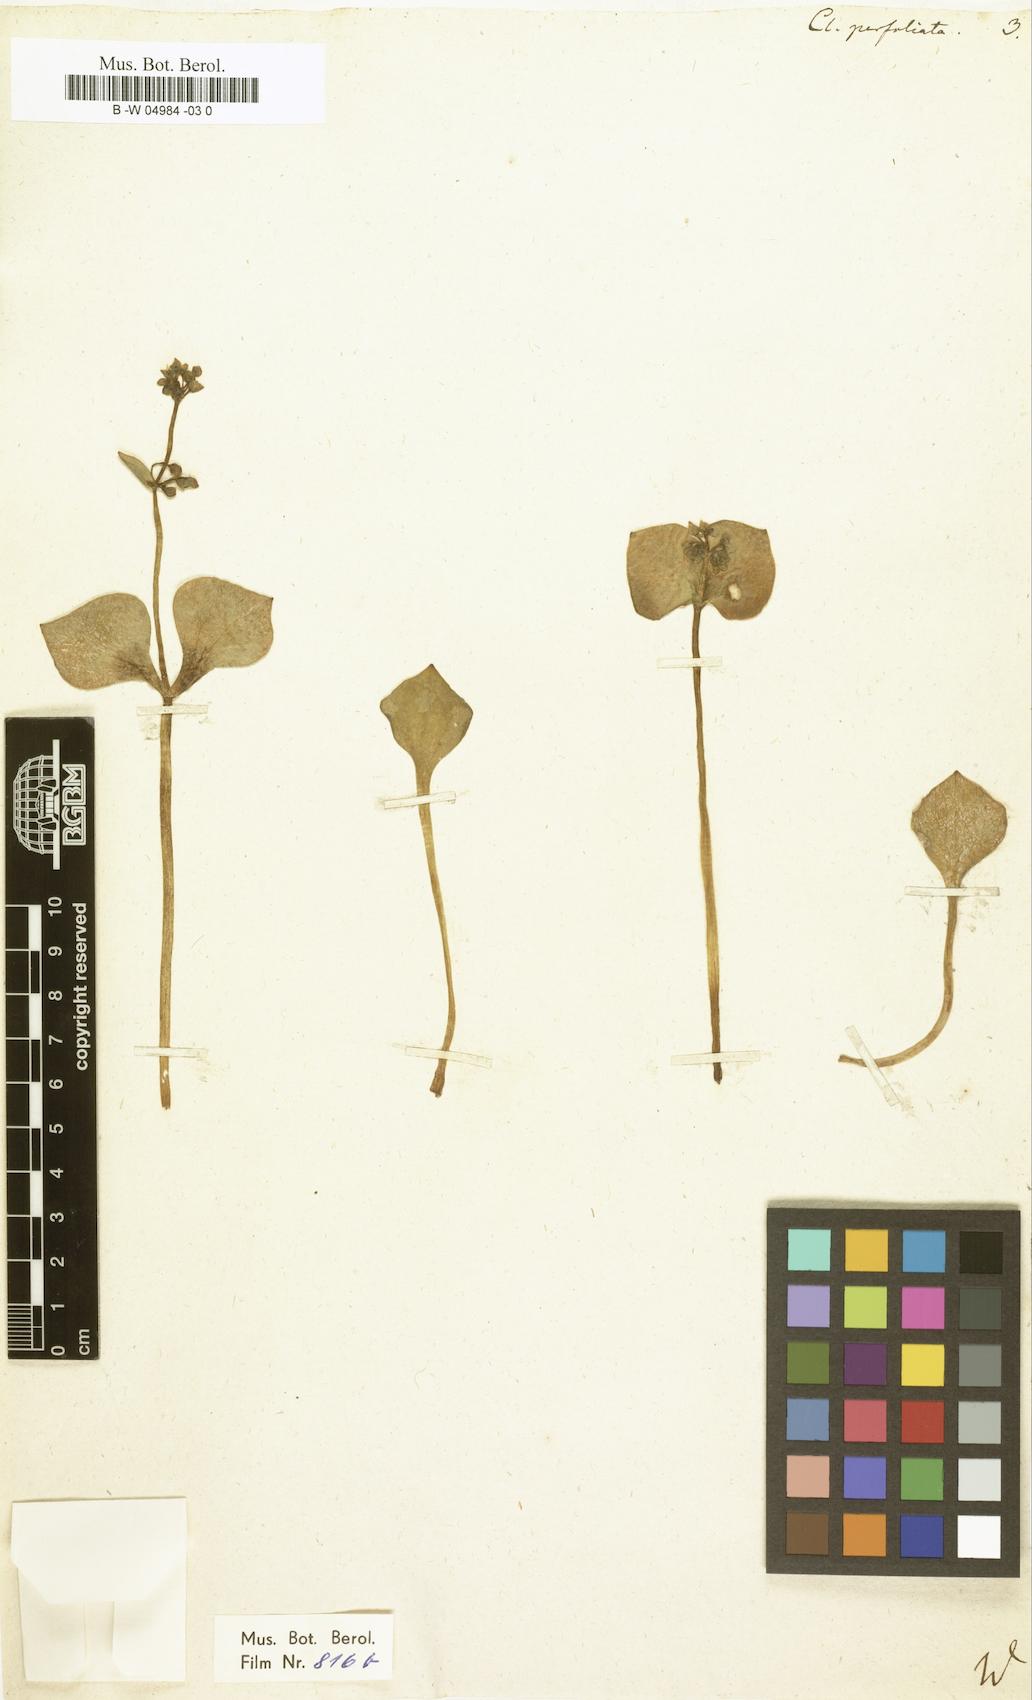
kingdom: Plantae
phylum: Tracheophyta
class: Magnoliopsida
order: Caryophyllales
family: Montiaceae
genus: Claytonia
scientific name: Claytonia perfoliata
